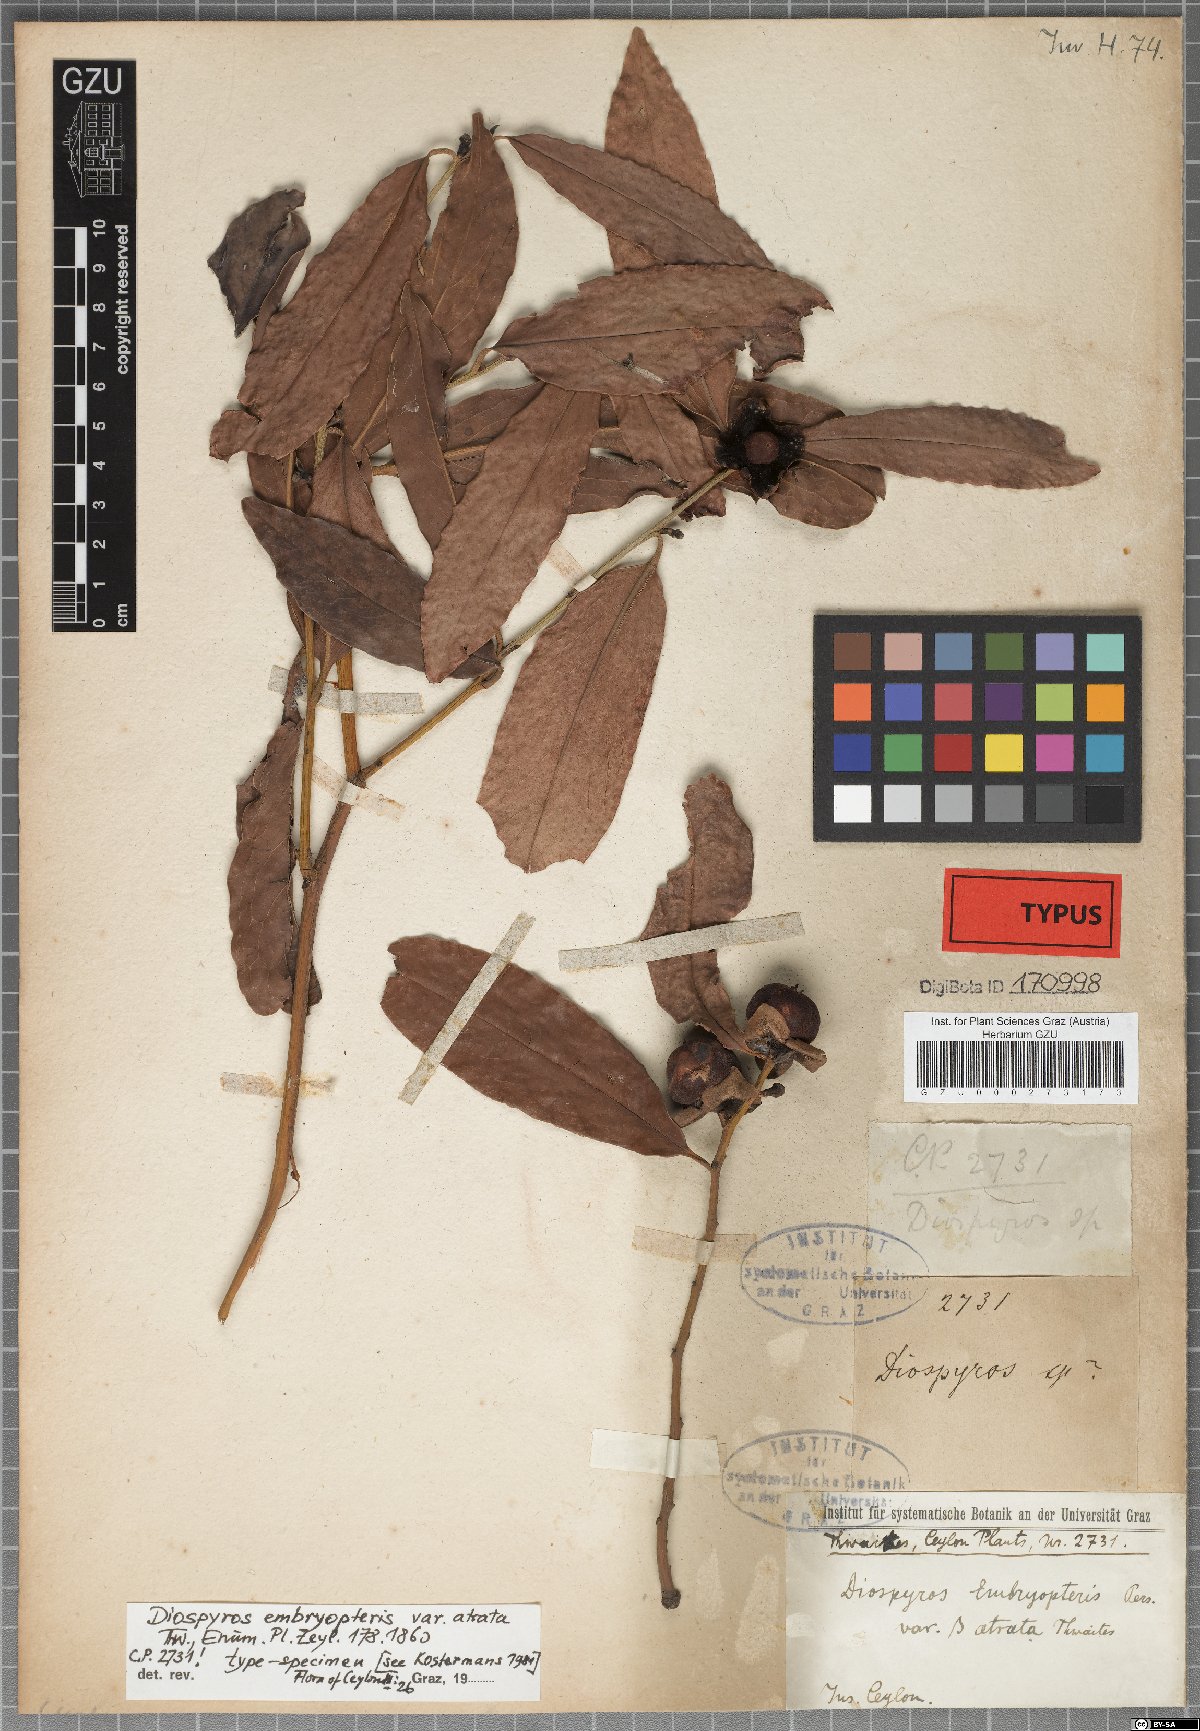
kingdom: Plantae
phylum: Tracheophyta
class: Magnoliopsida
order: Ericales
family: Ebenaceae
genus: Diospyros
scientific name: Diospyros atrata
